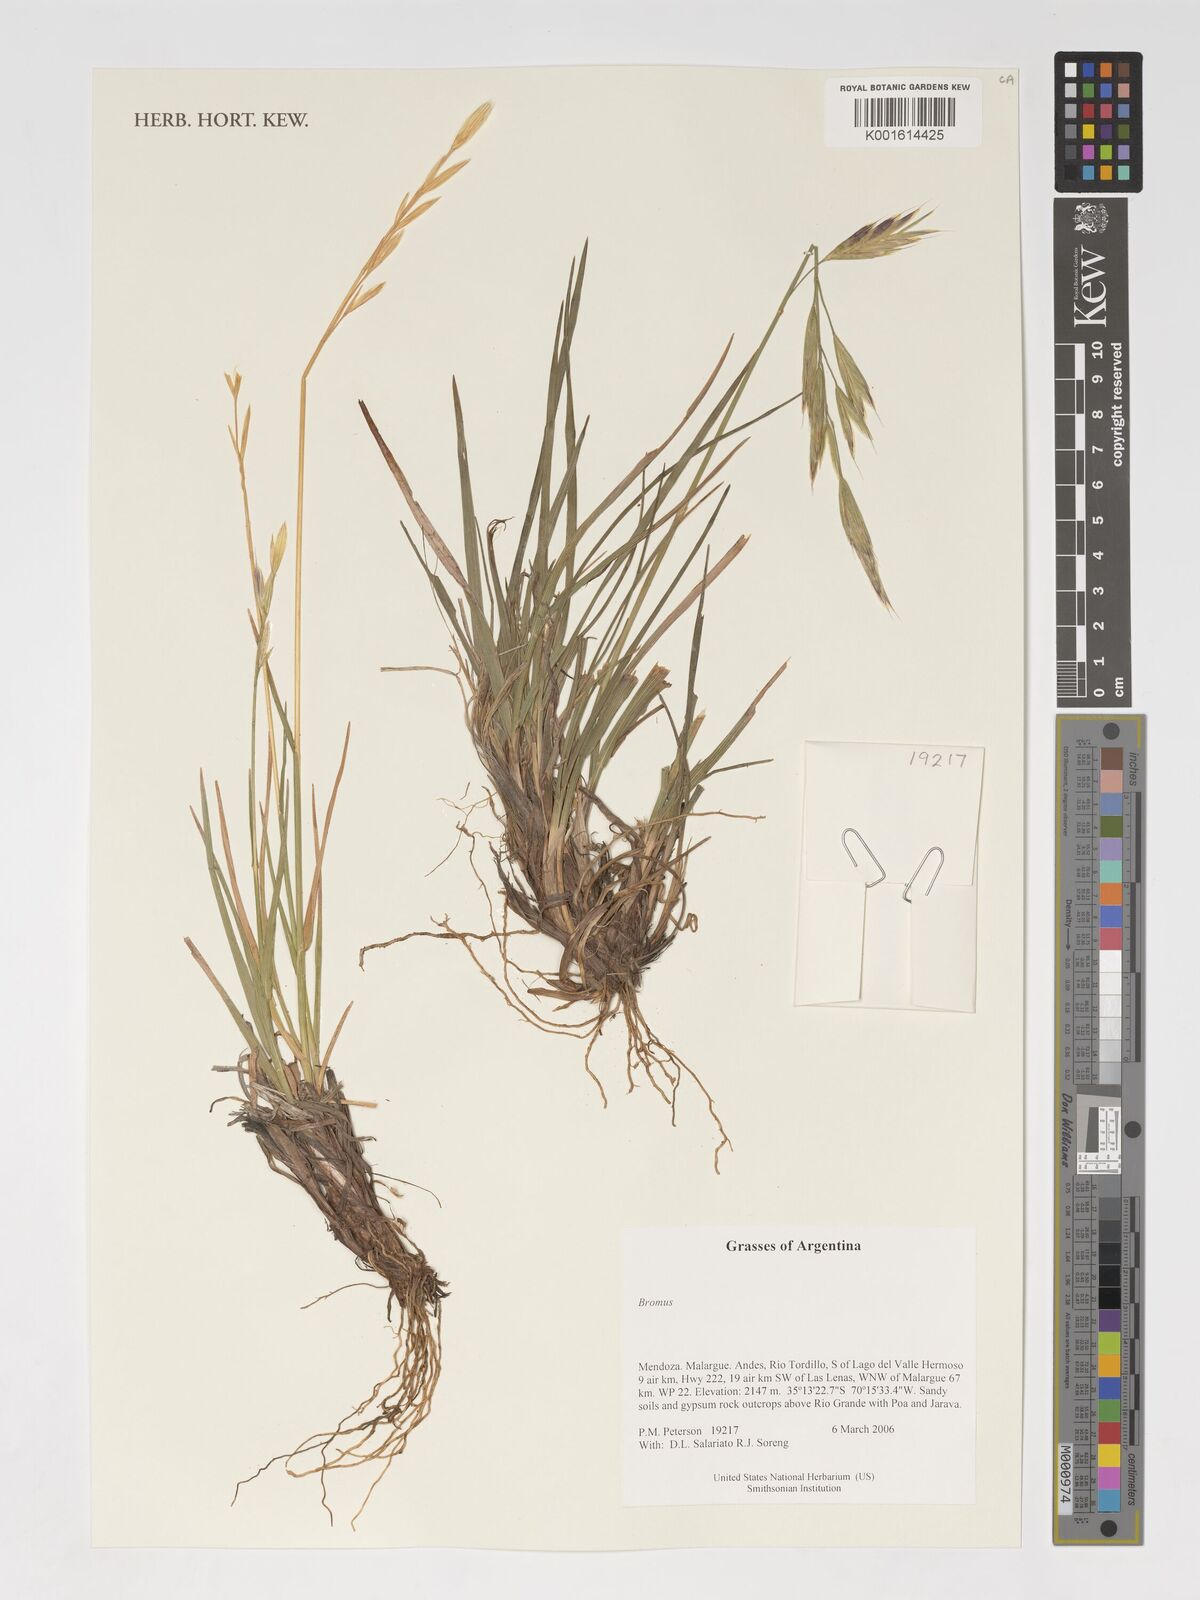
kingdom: Plantae
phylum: Tracheophyta
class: Liliopsida
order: Poales
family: Poaceae
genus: Bromus
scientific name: Bromus
